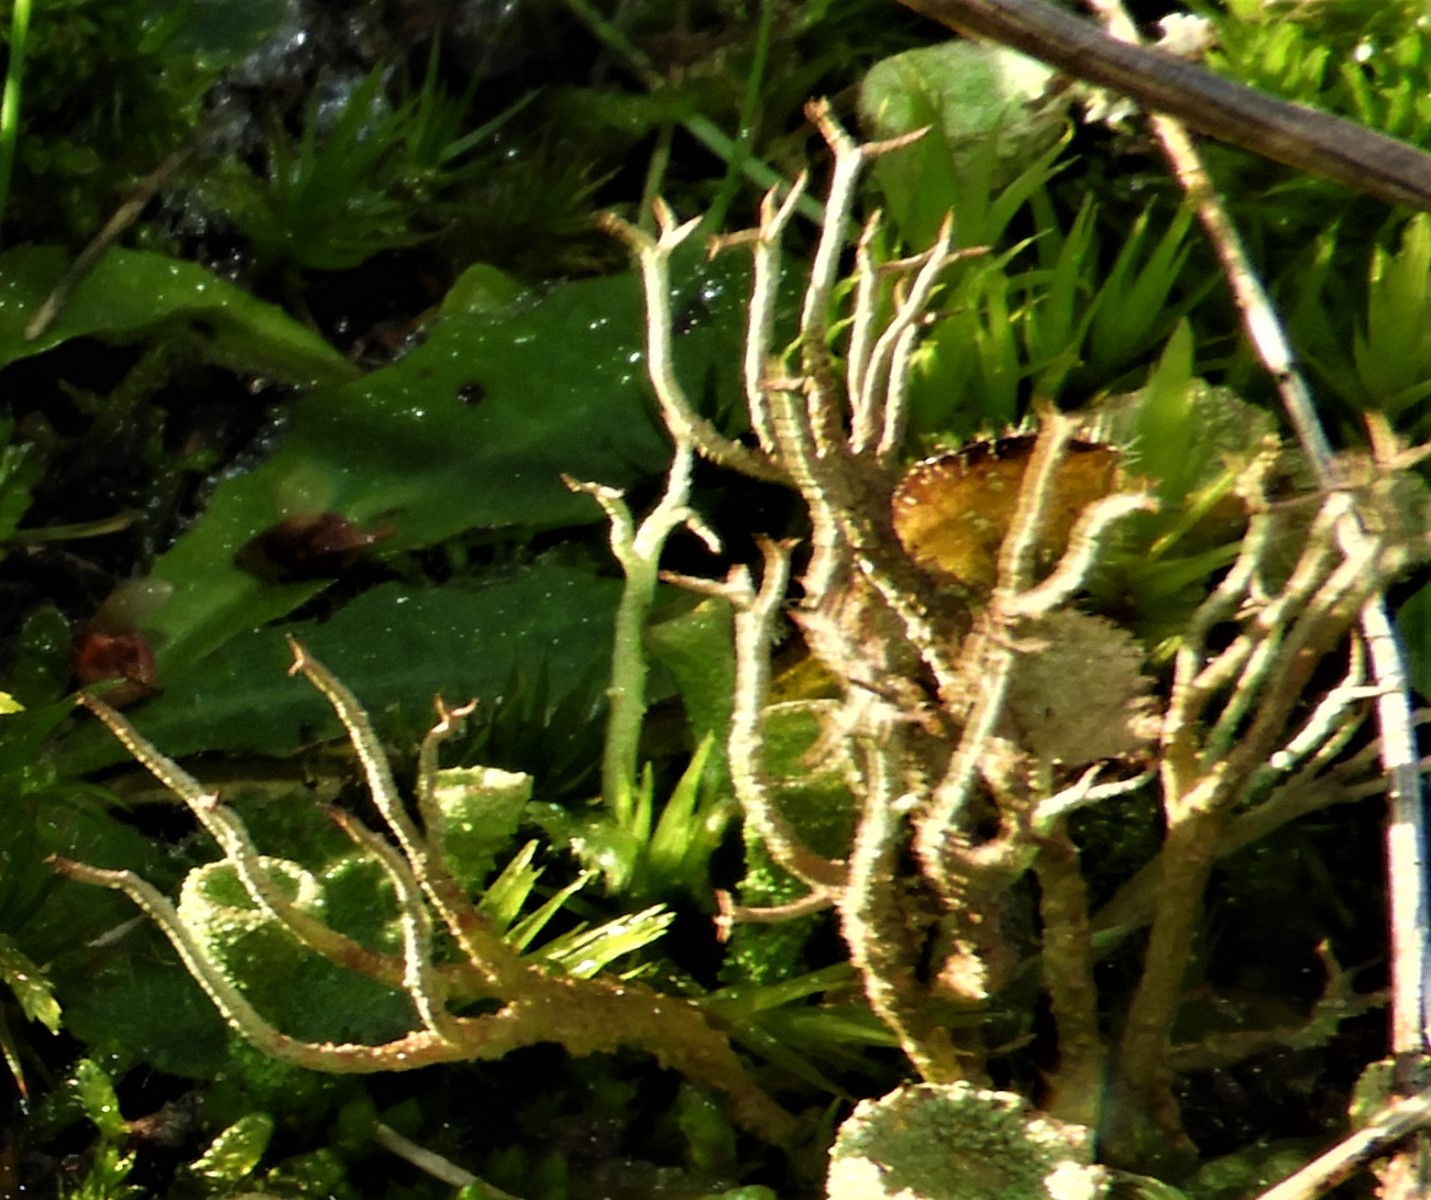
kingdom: Fungi
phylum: Ascomycota
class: Lecanoromycetes
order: Lecanorales
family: Cladoniaceae
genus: Cladonia
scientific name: Cladonia scabriuscula
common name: ru bægerlav
